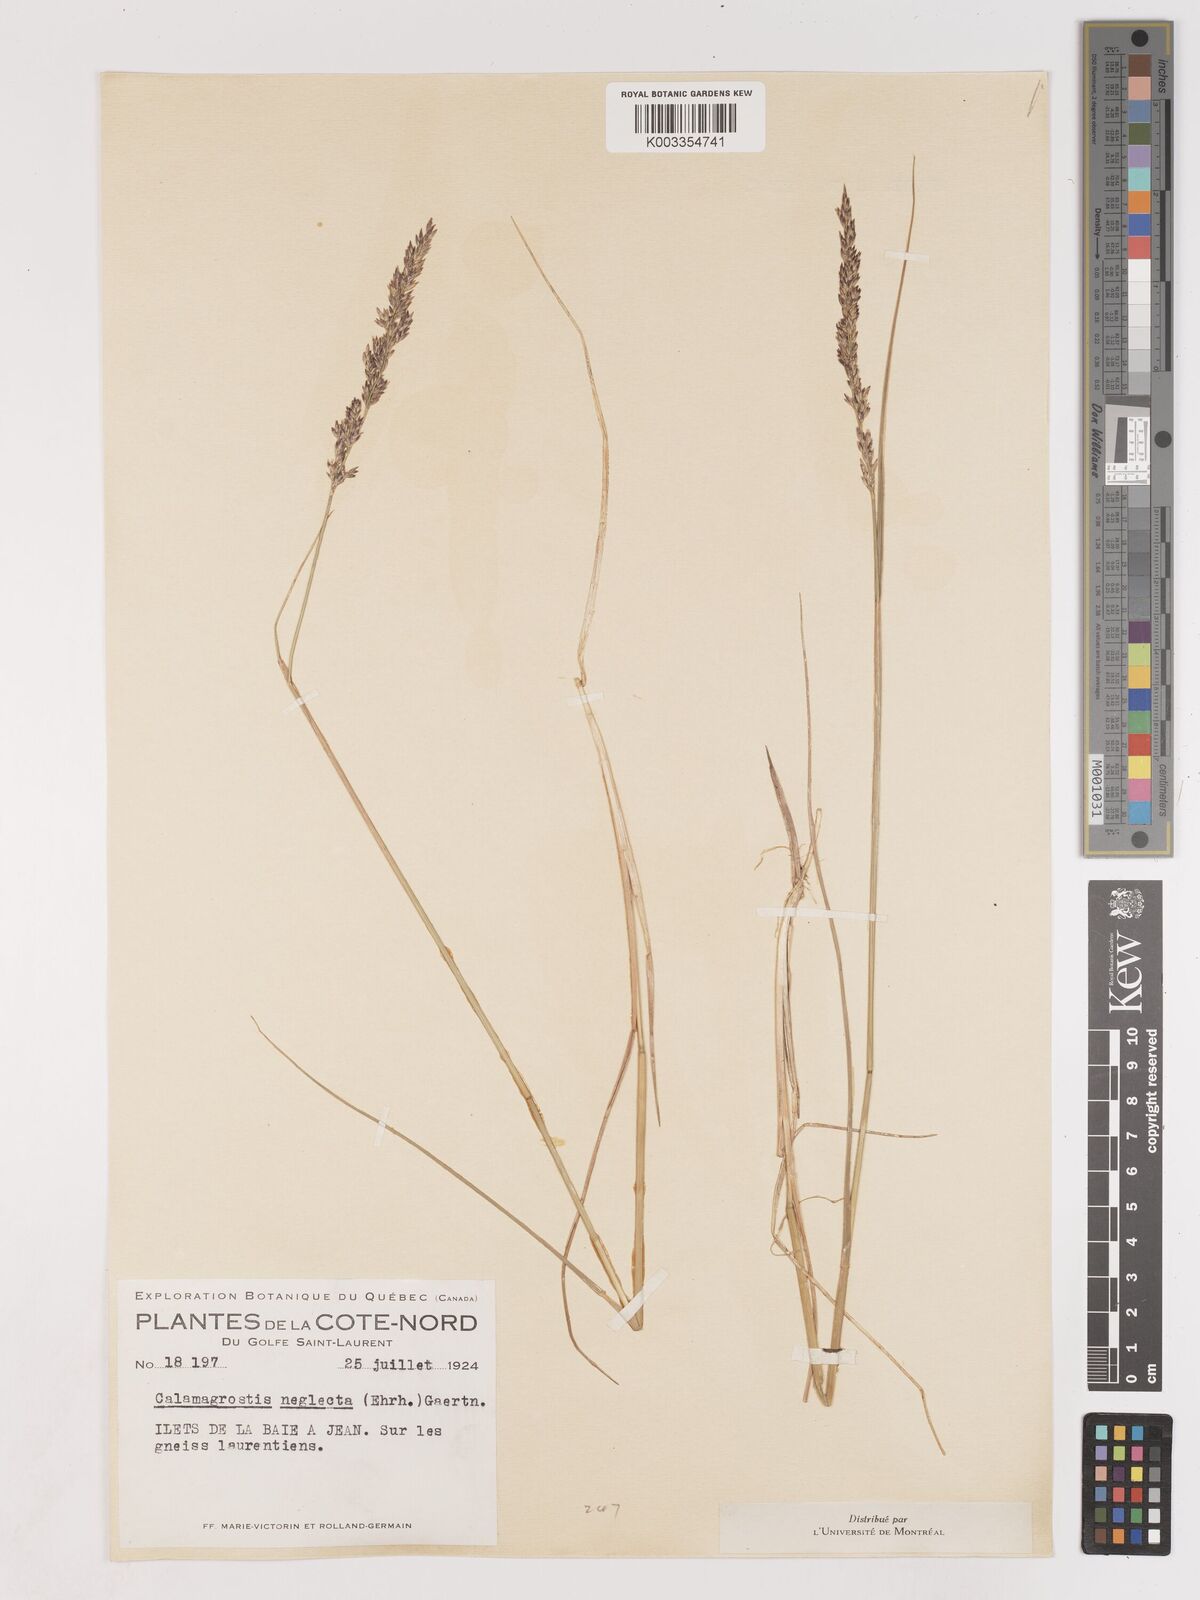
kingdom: Plantae
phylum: Tracheophyta
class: Liliopsida
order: Poales
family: Poaceae
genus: Cinnagrostis
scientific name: Cinnagrostis recta
